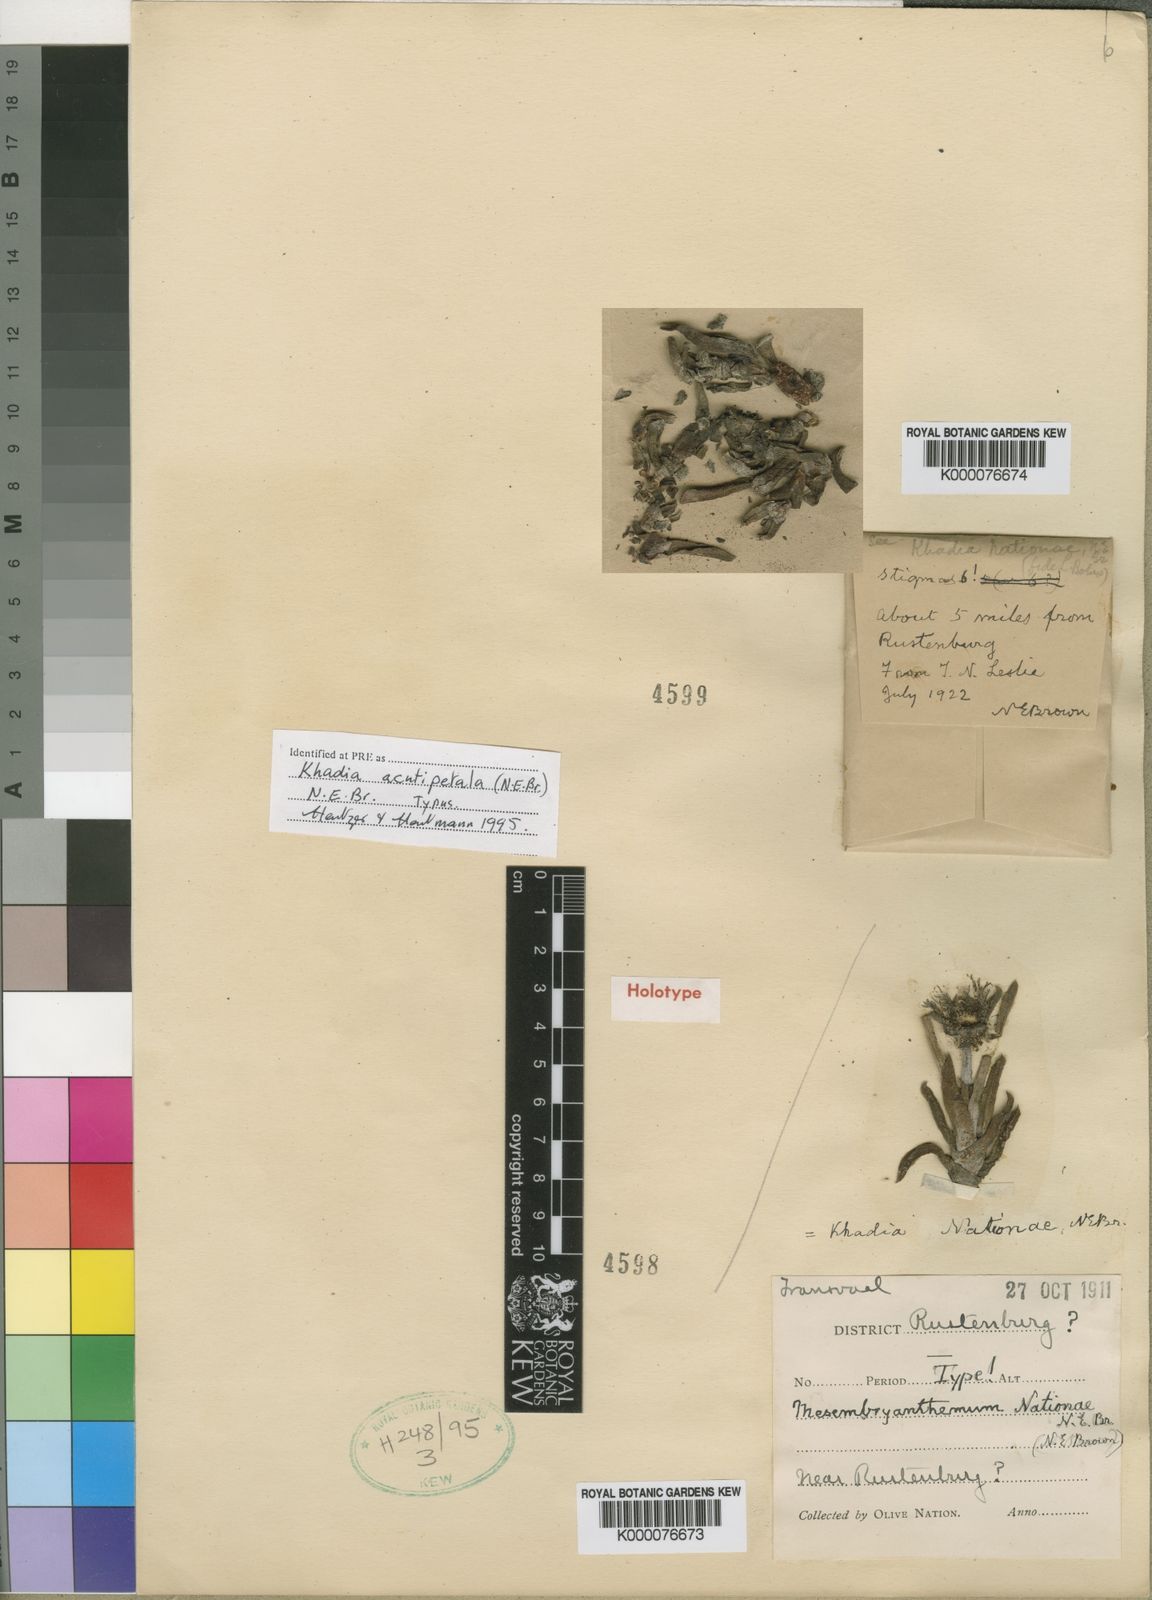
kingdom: Plantae
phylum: Tracheophyta
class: Magnoliopsida
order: Caryophyllales
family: Aizoaceae
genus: Khadia
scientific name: Khadia acutipetala
